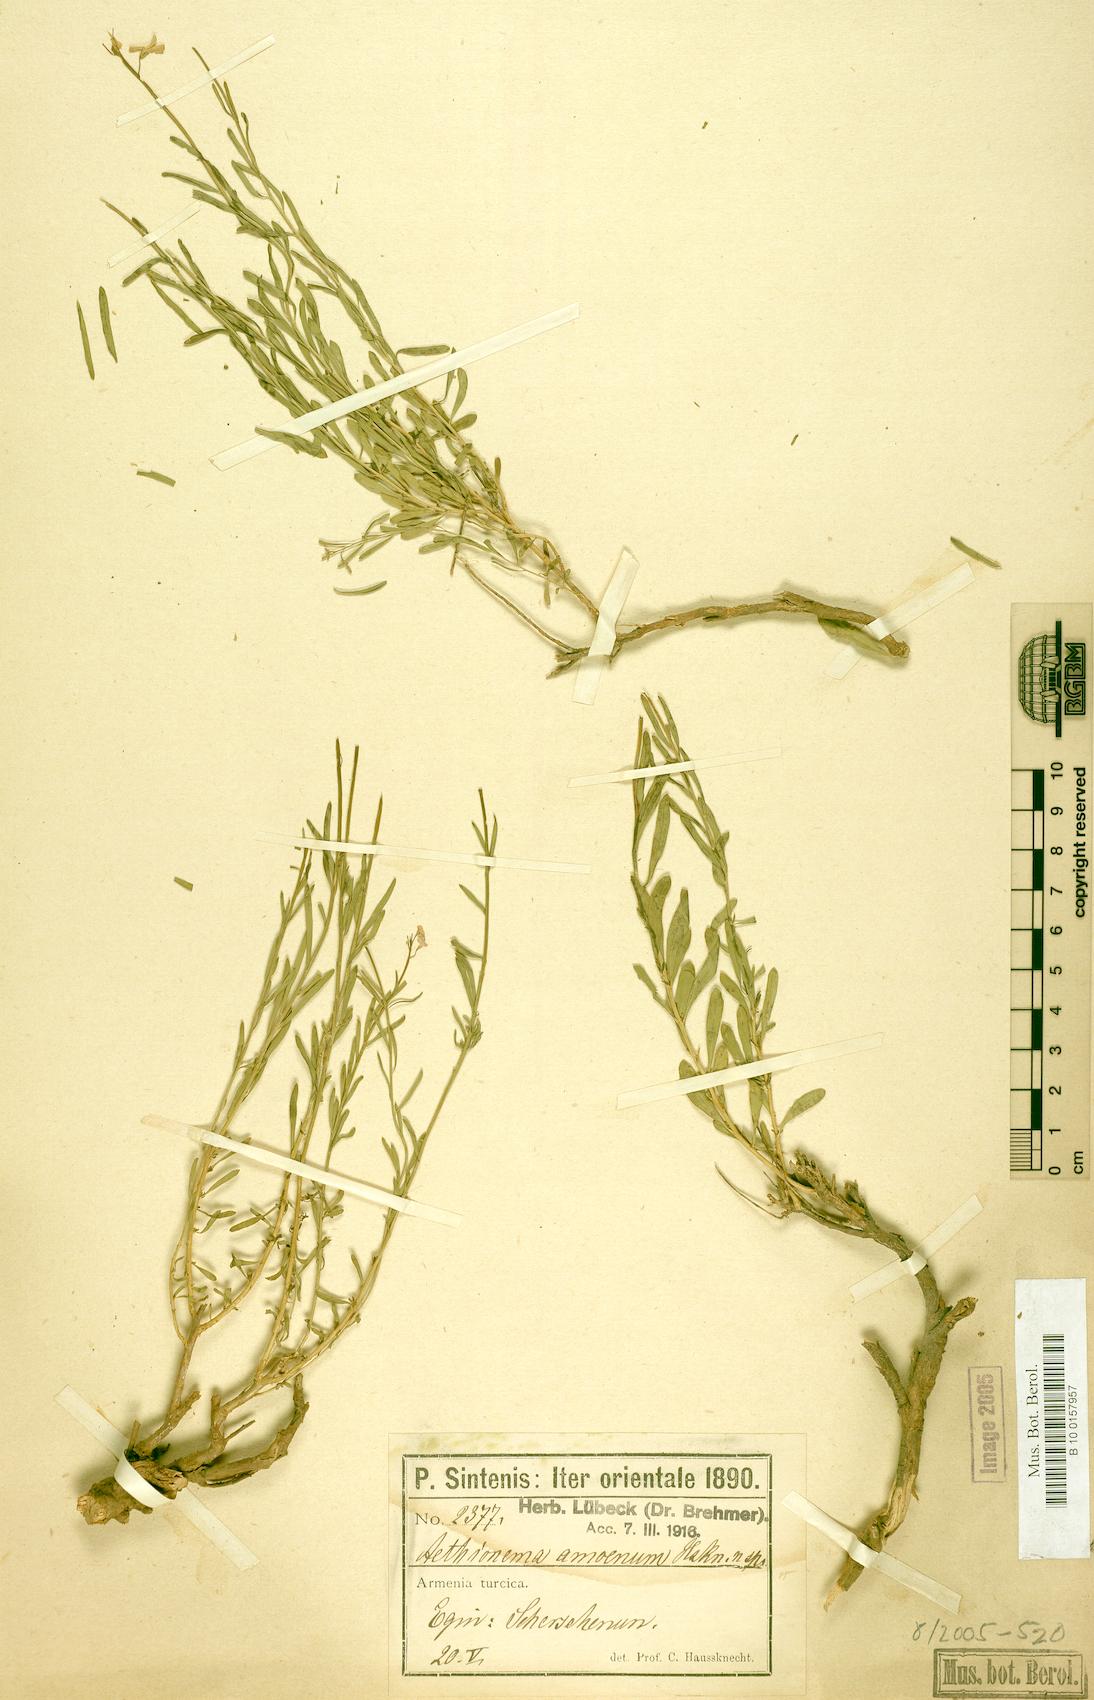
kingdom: Plantae
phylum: Tracheophyta
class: Magnoliopsida
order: Brassicales
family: Brassicaceae
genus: Aethionema
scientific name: Aethionema amoenum
